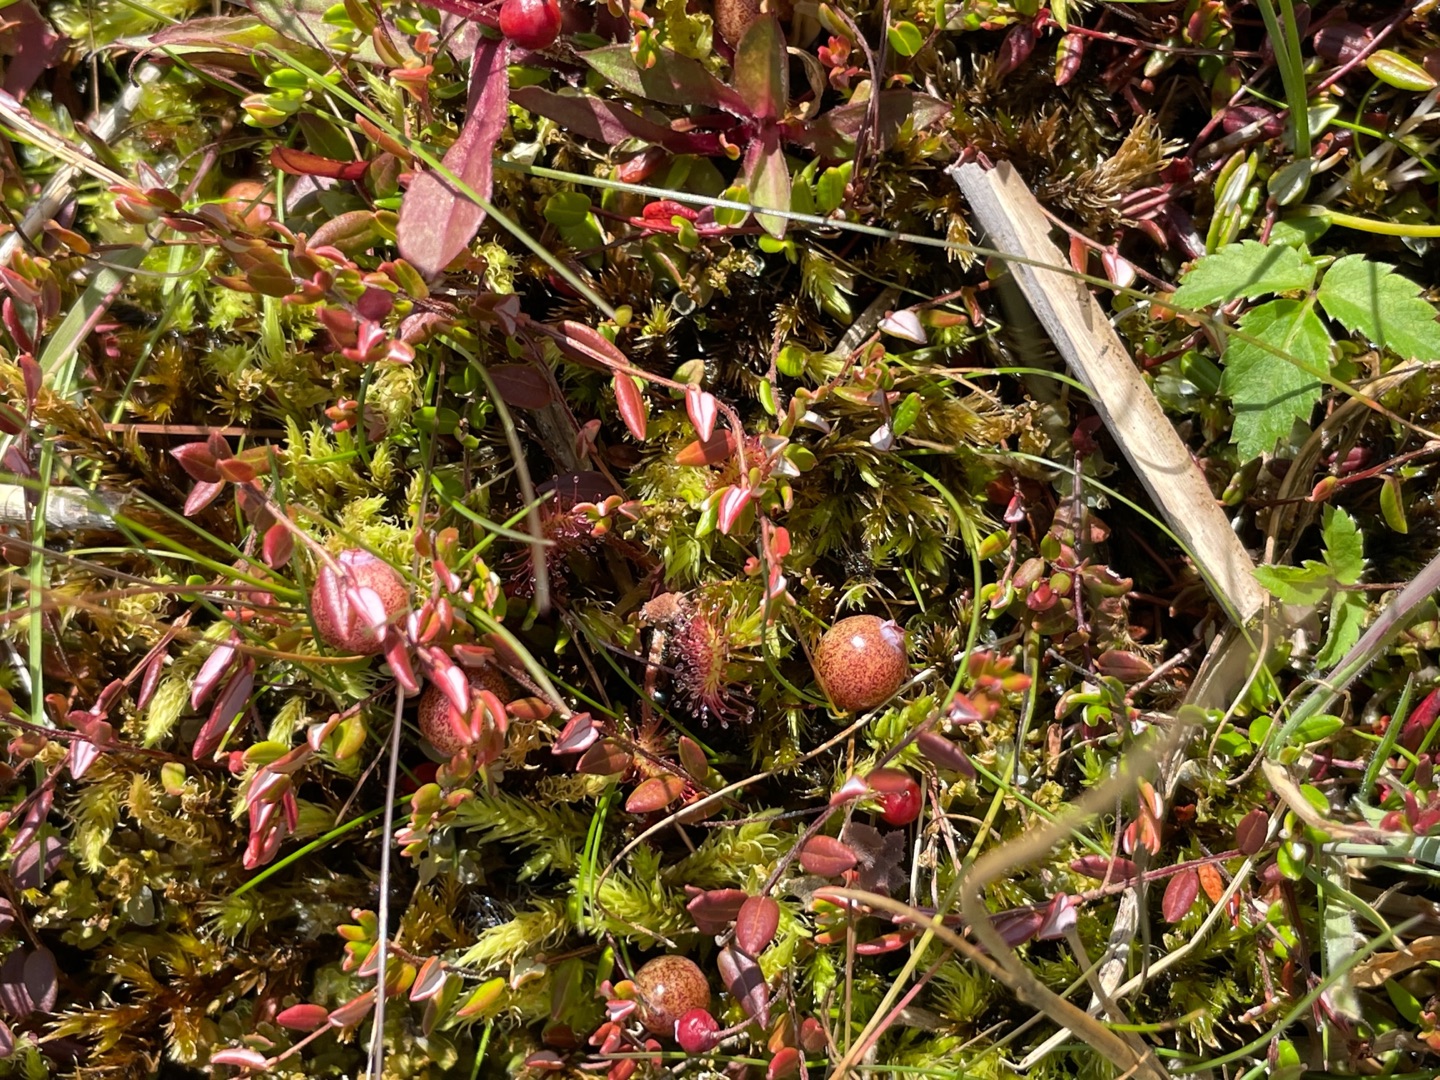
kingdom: Plantae
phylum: Tracheophyta
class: Magnoliopsida
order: Ericales
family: Ericaceae
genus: Vaccinium
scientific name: Vaccinium oxycoccos
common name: Tranebær
